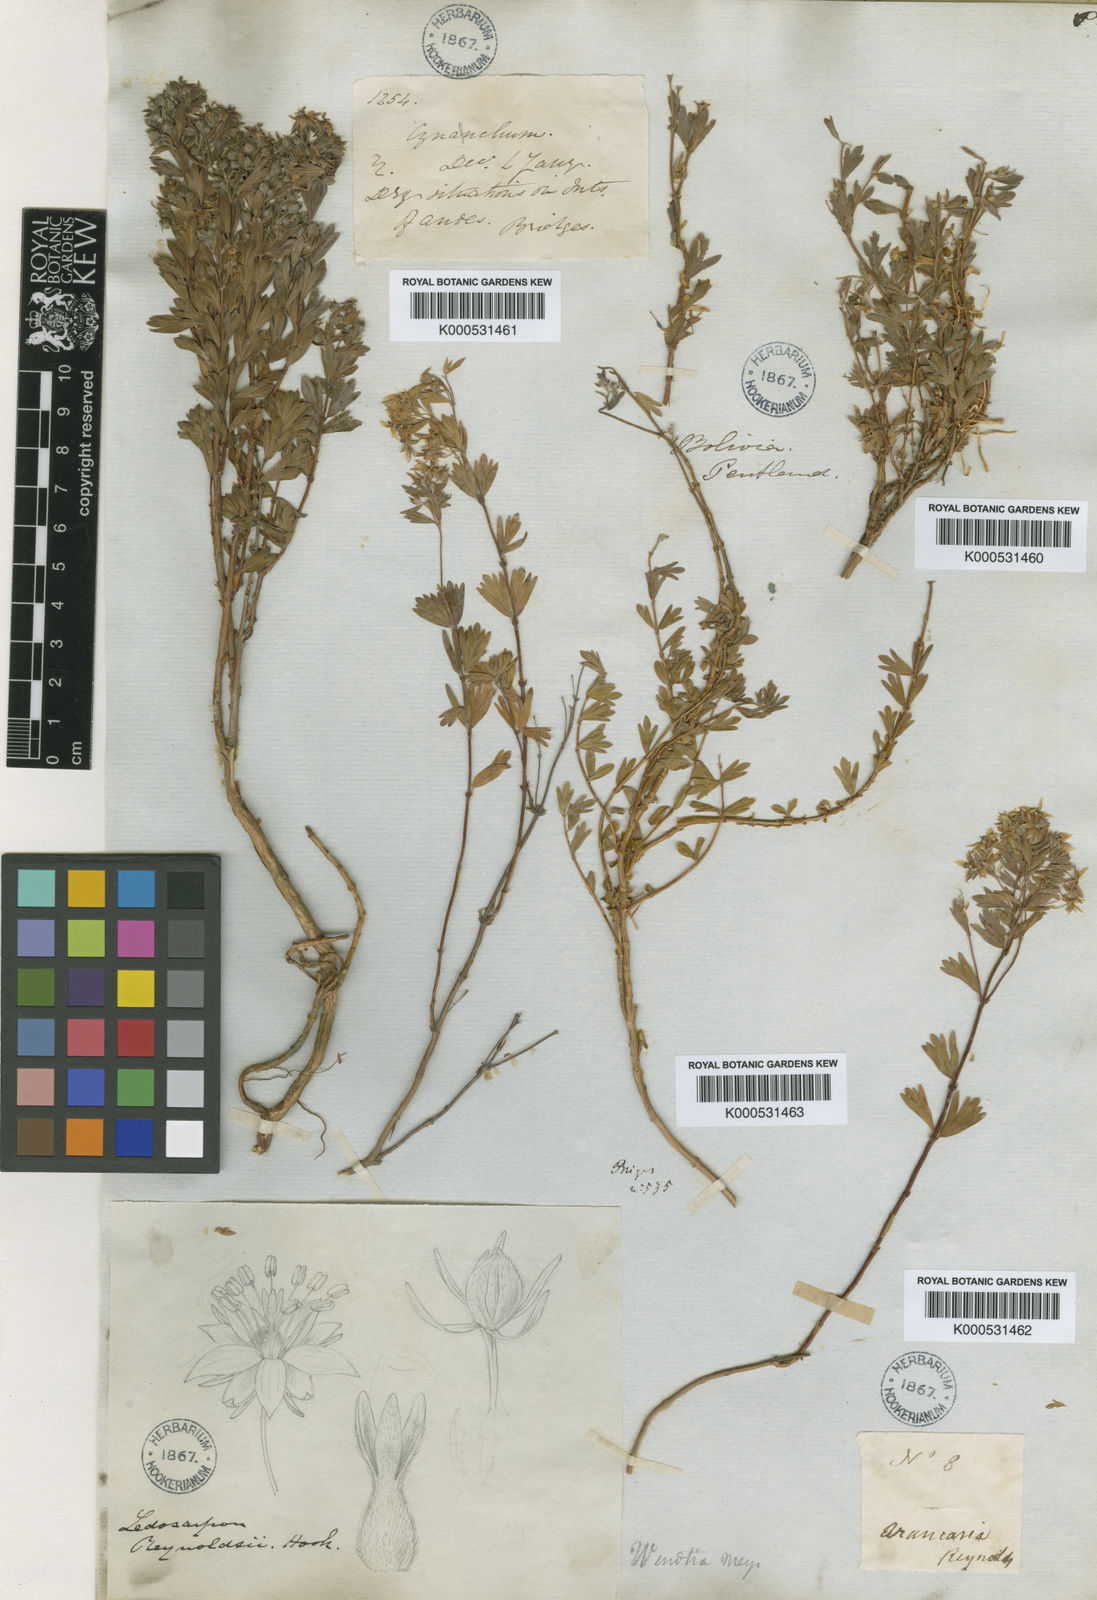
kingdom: Plantae
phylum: Tracheophyta
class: Magnoliopsida
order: Geraniales
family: Vivianiaceae
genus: Wendtia
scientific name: Wendtia gracilis
